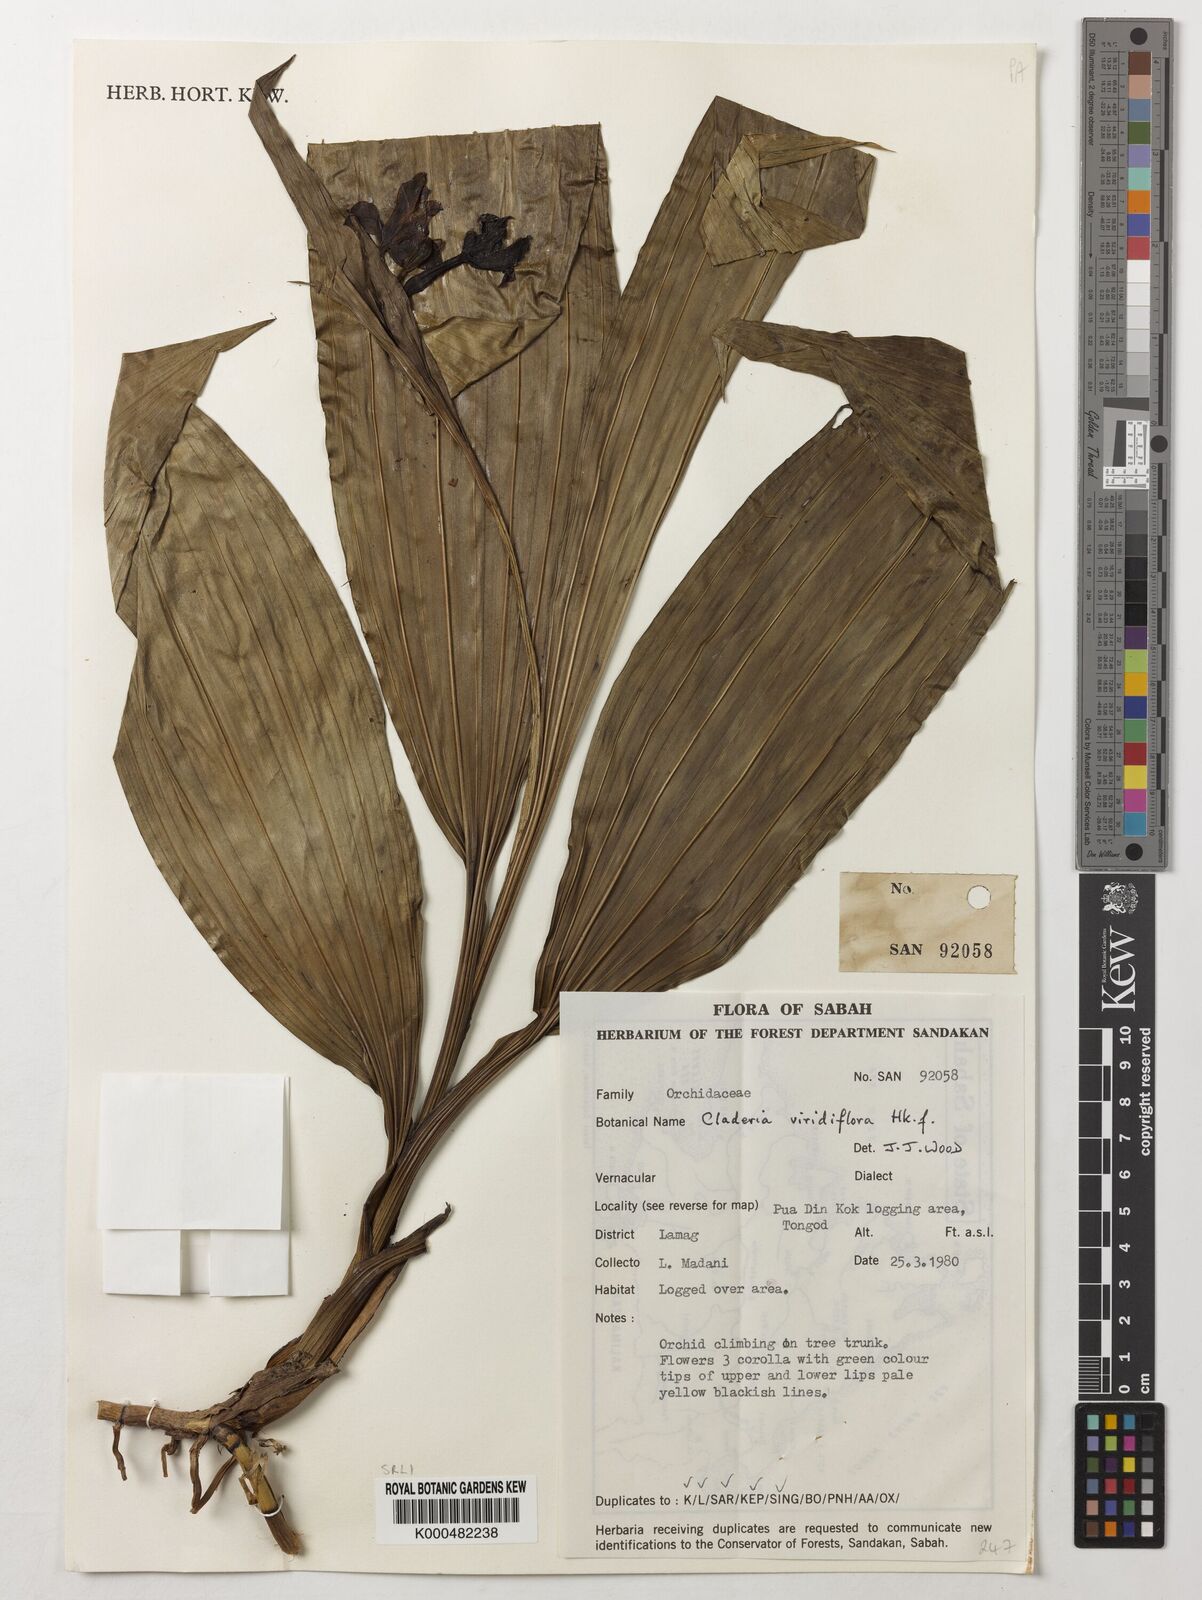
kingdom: Plantae
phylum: Tracheophyta
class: Liliopsida
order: Asparagales
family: Orchidaceae
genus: Claderia
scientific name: Claderia
